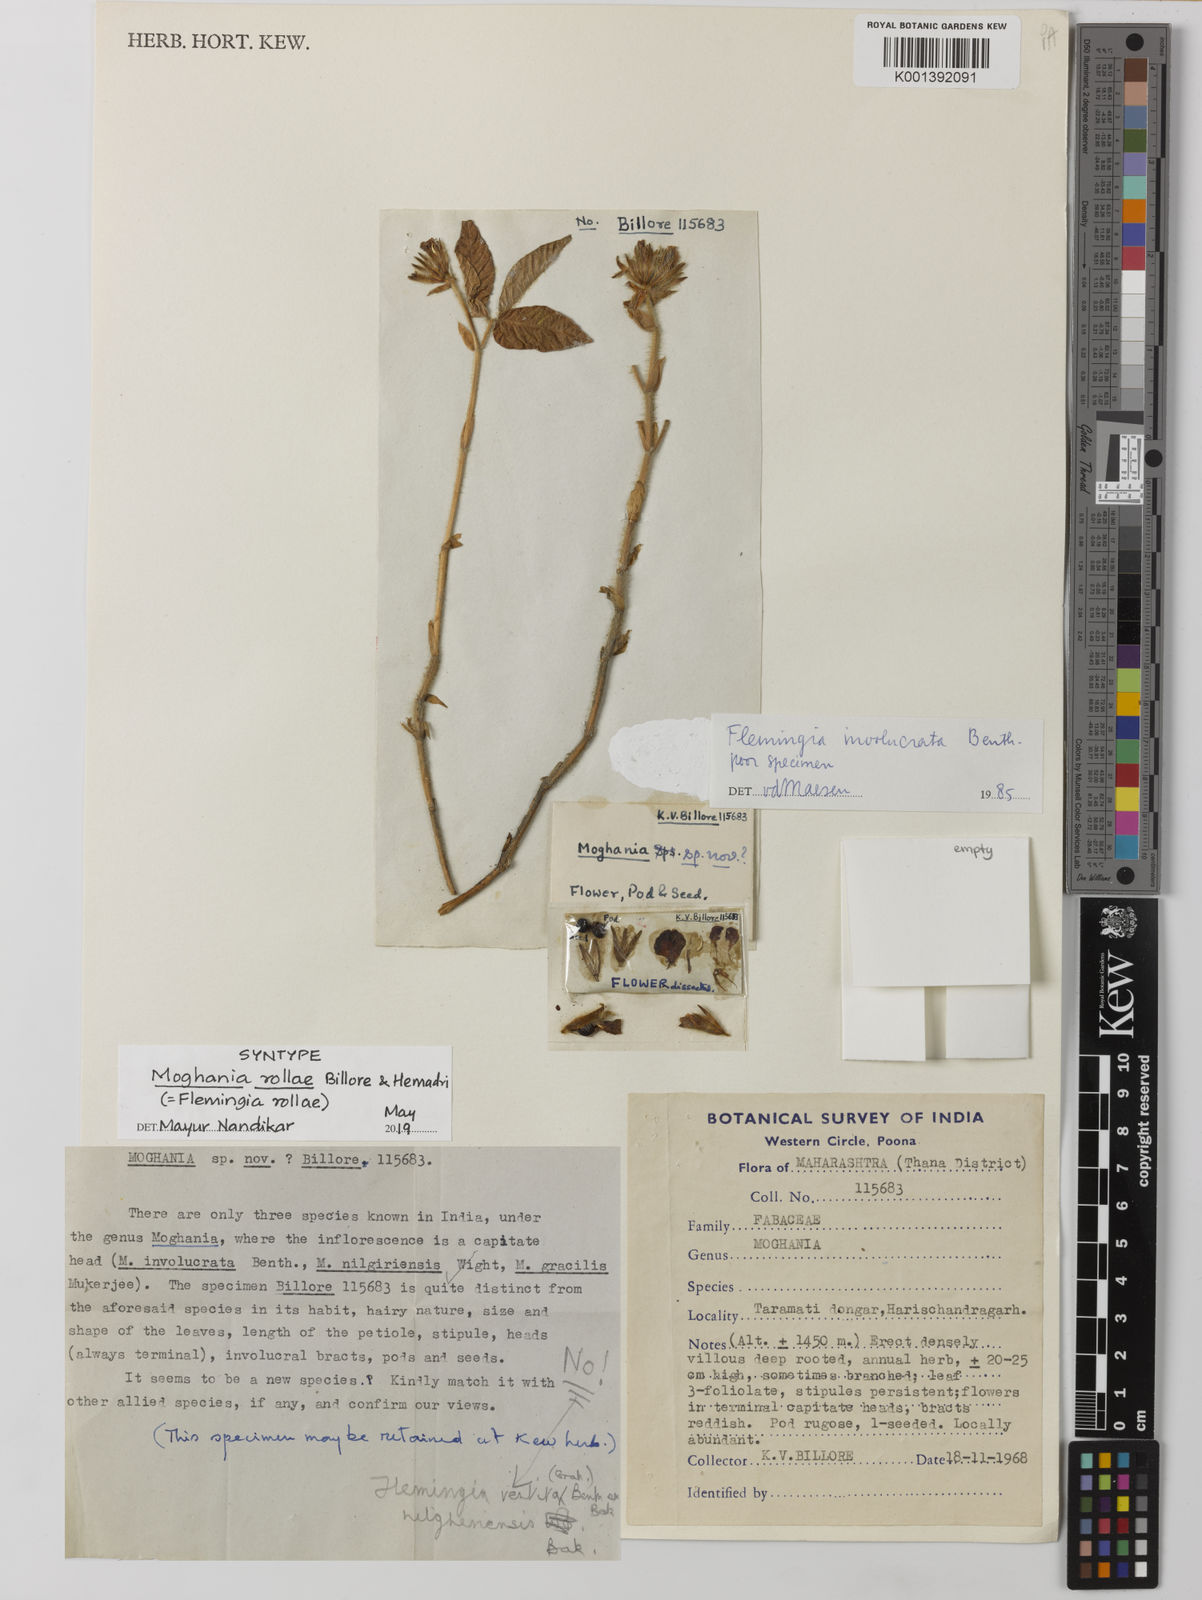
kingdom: Plantae
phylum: Tracheophyta
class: Magnoliopsida
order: Fabales
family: Fabaceae
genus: Flemingia
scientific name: Flemingia
